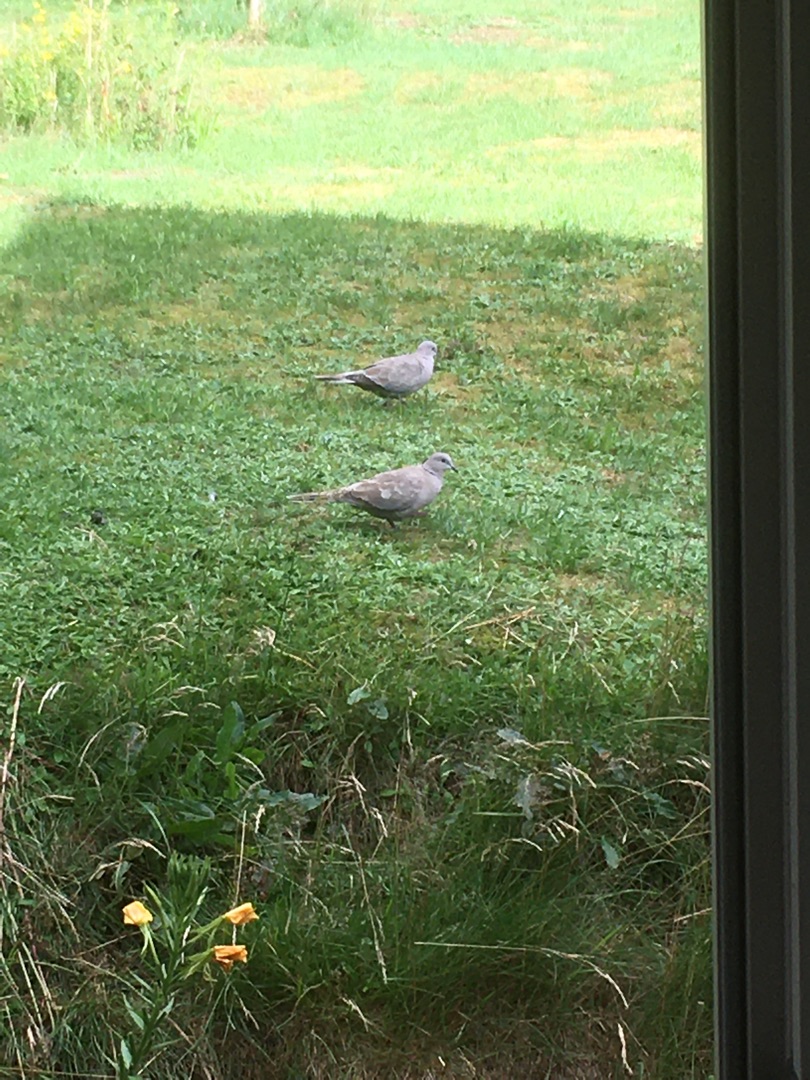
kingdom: Animalia
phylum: Chordata
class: Aves
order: Columbiformes
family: Columbidae
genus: Streptopelia
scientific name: Streptopelia decaocto
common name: Tyrkerdue
